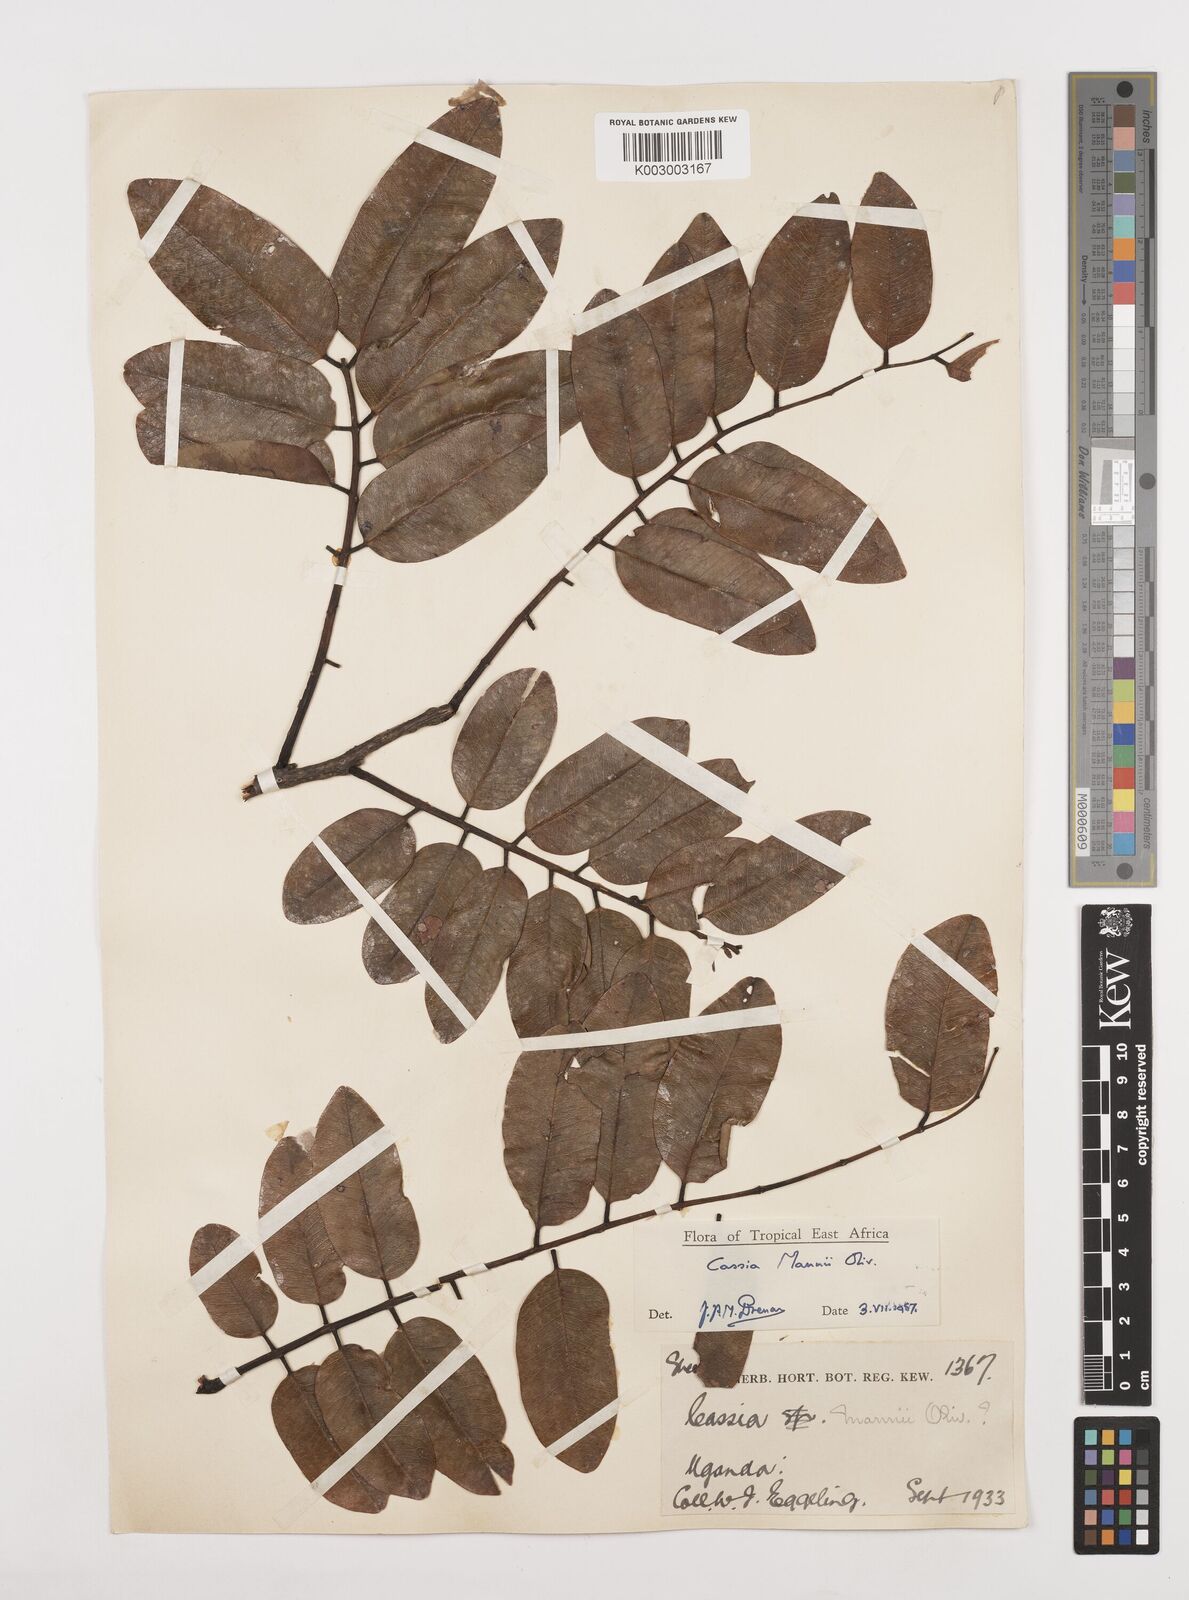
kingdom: Plantae
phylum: Tracheophyta
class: Magnoliopsida
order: Fabales
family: Fabaceae
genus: Cassia
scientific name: Cassia mannii
